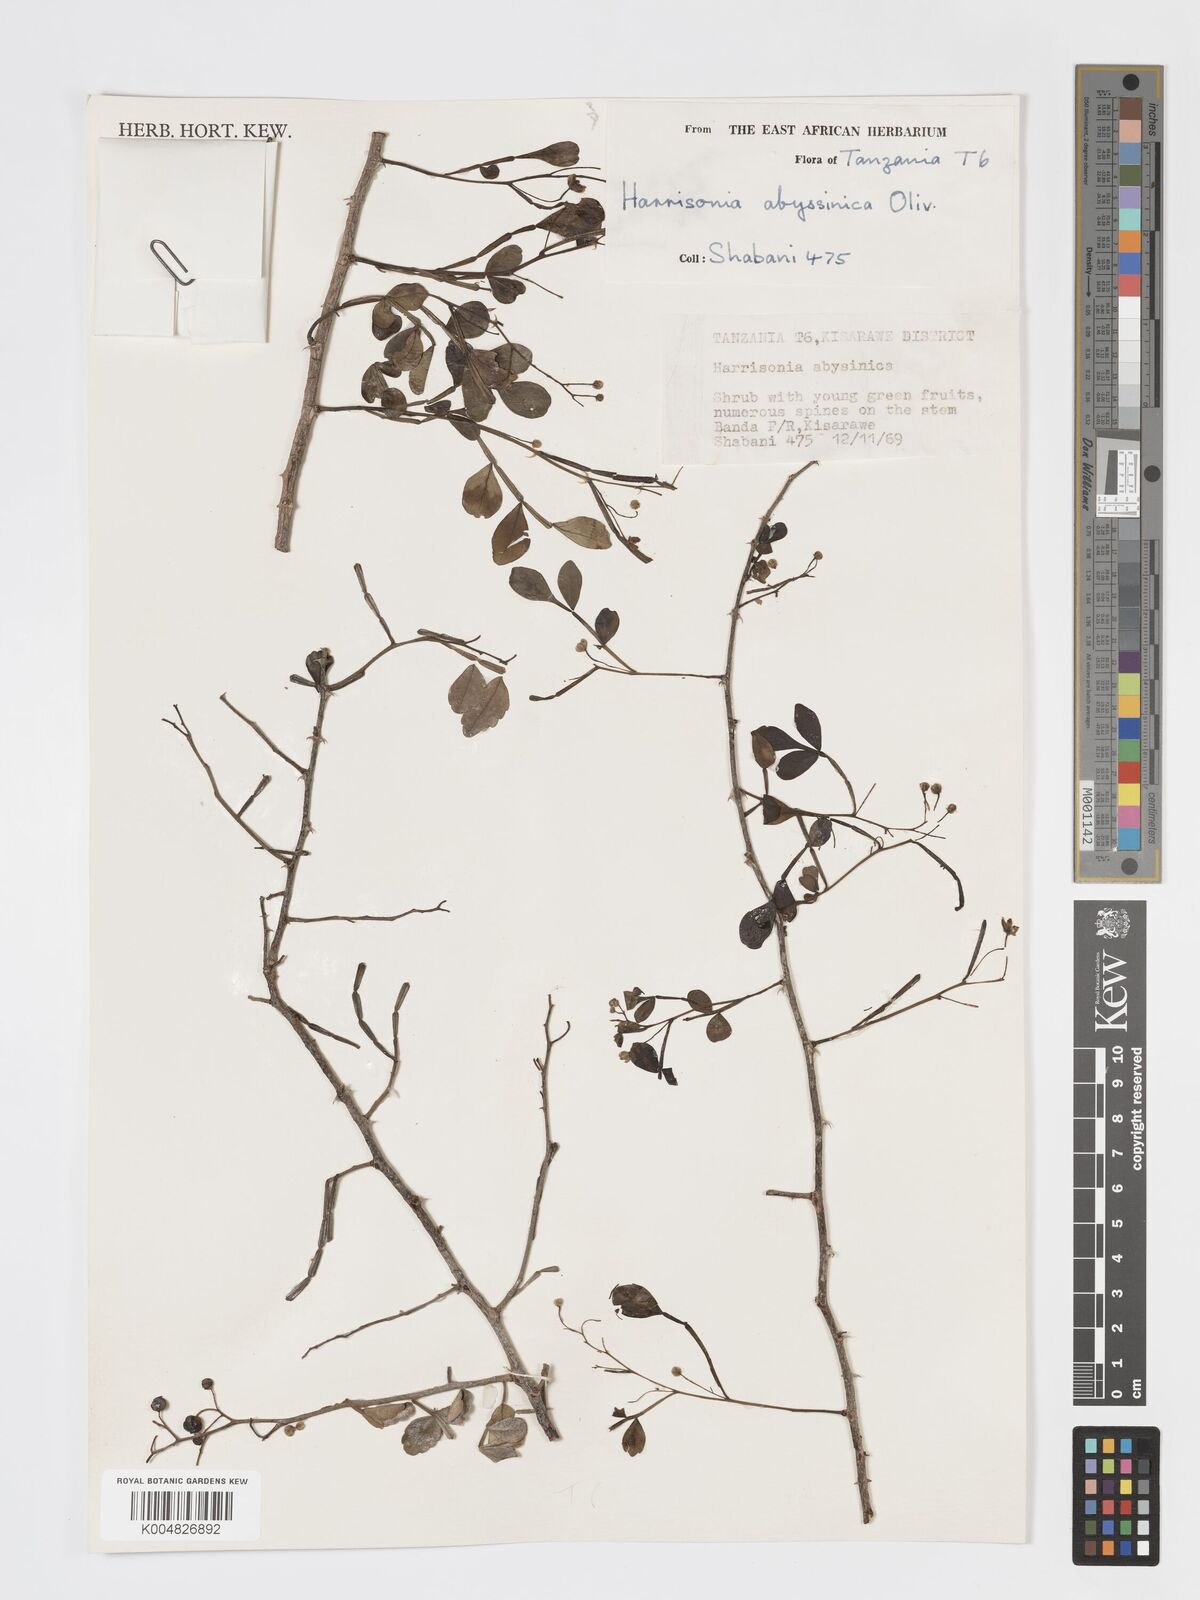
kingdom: Plantae
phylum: Tracheophyta
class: Magnoliopsida
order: Sapindales
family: Rutaceae
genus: Harrisonia
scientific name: Harrisonia abyssinica
